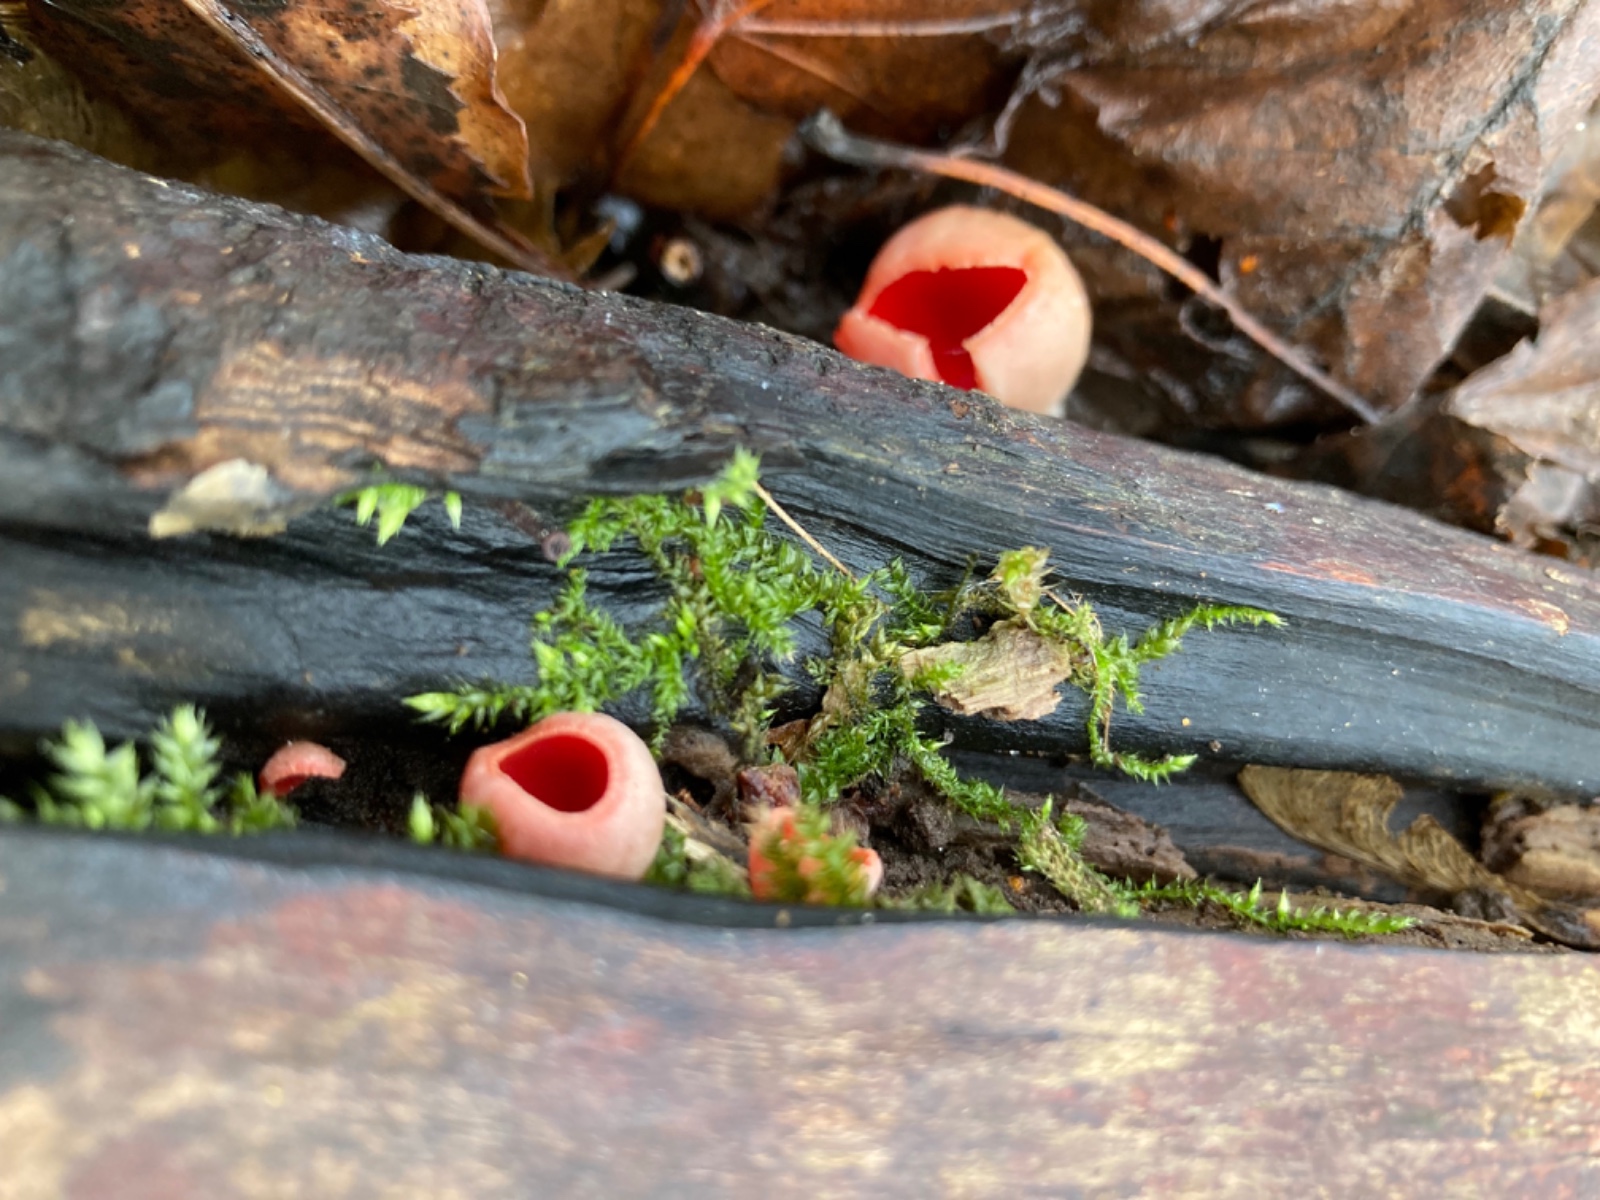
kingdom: Fungi
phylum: Ascomycota
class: Pezizomycetes
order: Pezizales
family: Sarcoscyphaceae
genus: Sarcoscypha
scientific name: Sarcoscypha austriaca
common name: krølhåret pragtbæger
